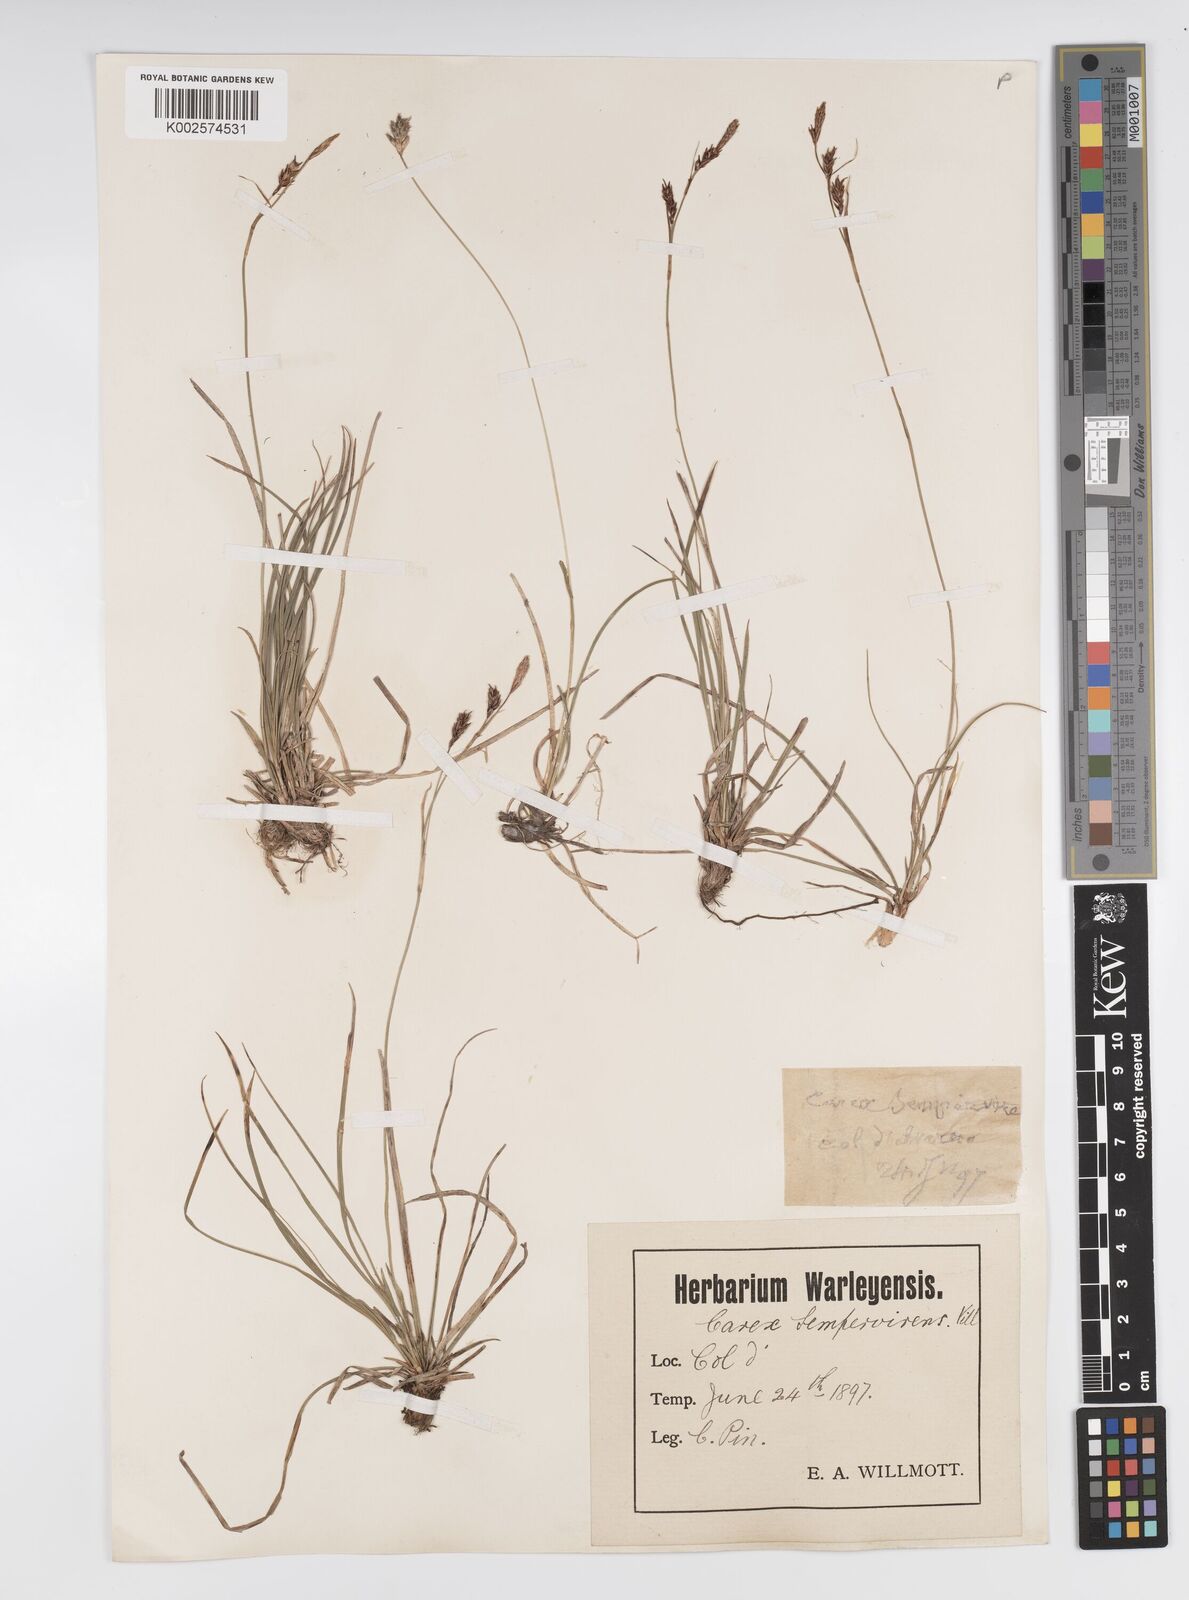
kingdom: Plantae
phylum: Tracheophyta
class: Liliopsida
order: Poales
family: Cyperaceae
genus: Carex
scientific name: Carex sempervirens
